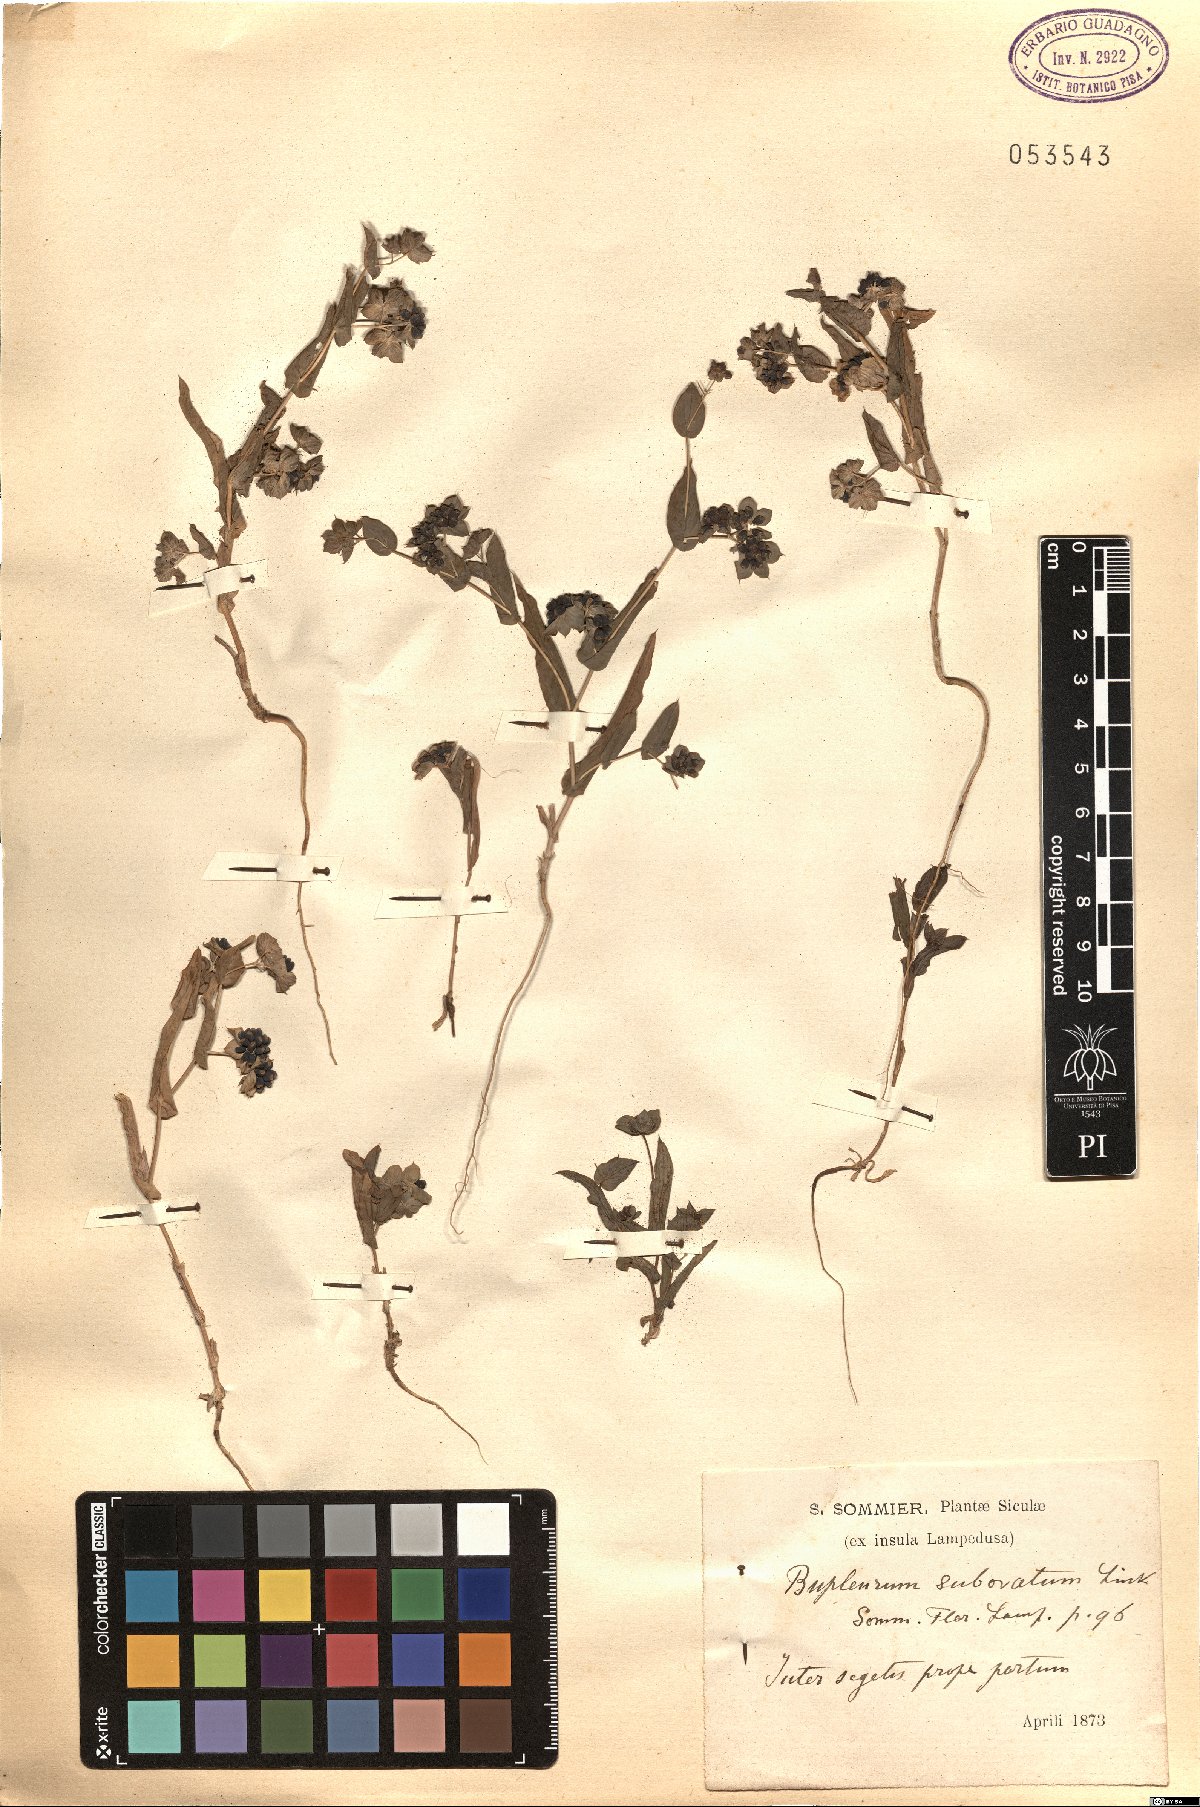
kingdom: Plantae
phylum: Tracheophyta
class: Magnoliopsida
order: Apiales
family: Apiaceae
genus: Bupleurum
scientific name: Bupleurum subovatum
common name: False thorow-wax
